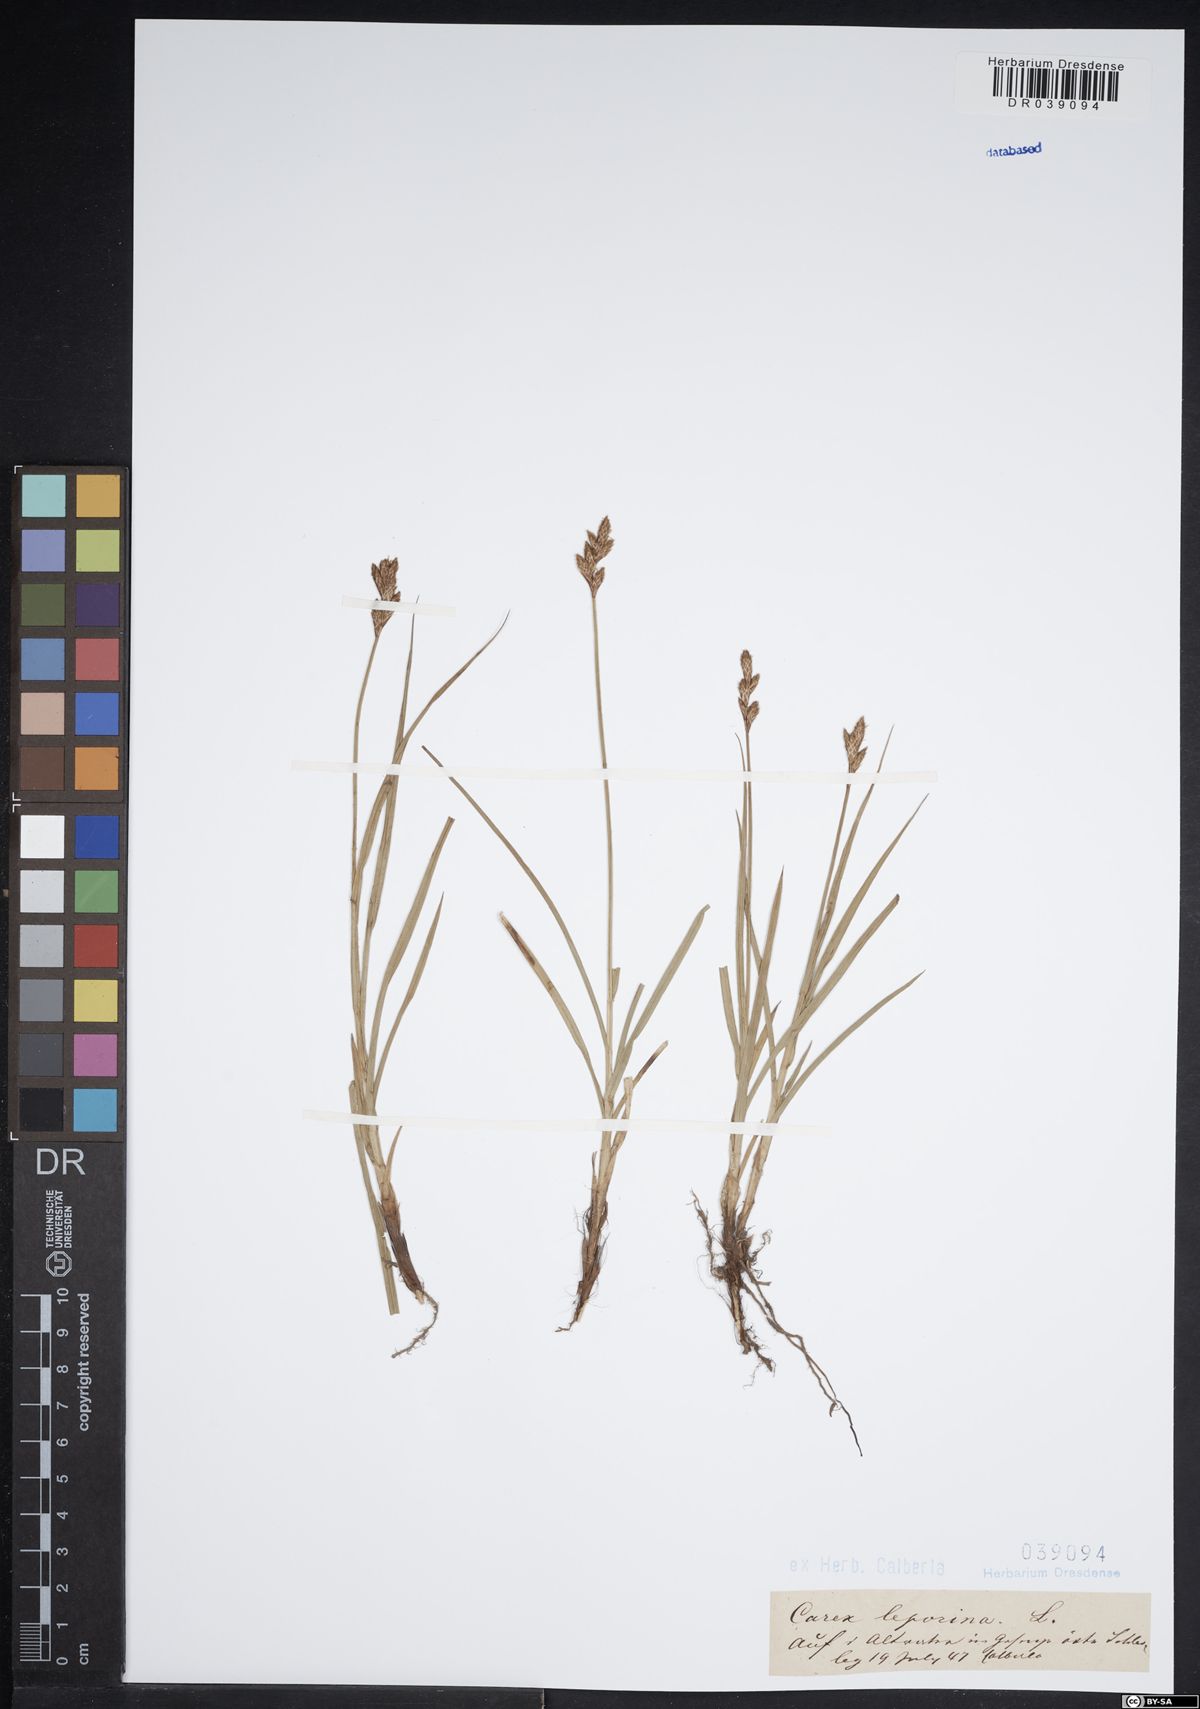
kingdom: Plantae
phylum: Tracheophyta
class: Liliopsida
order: Poales
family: Cyperaceae
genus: Carex
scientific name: Carex leporina
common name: Oval sedge
